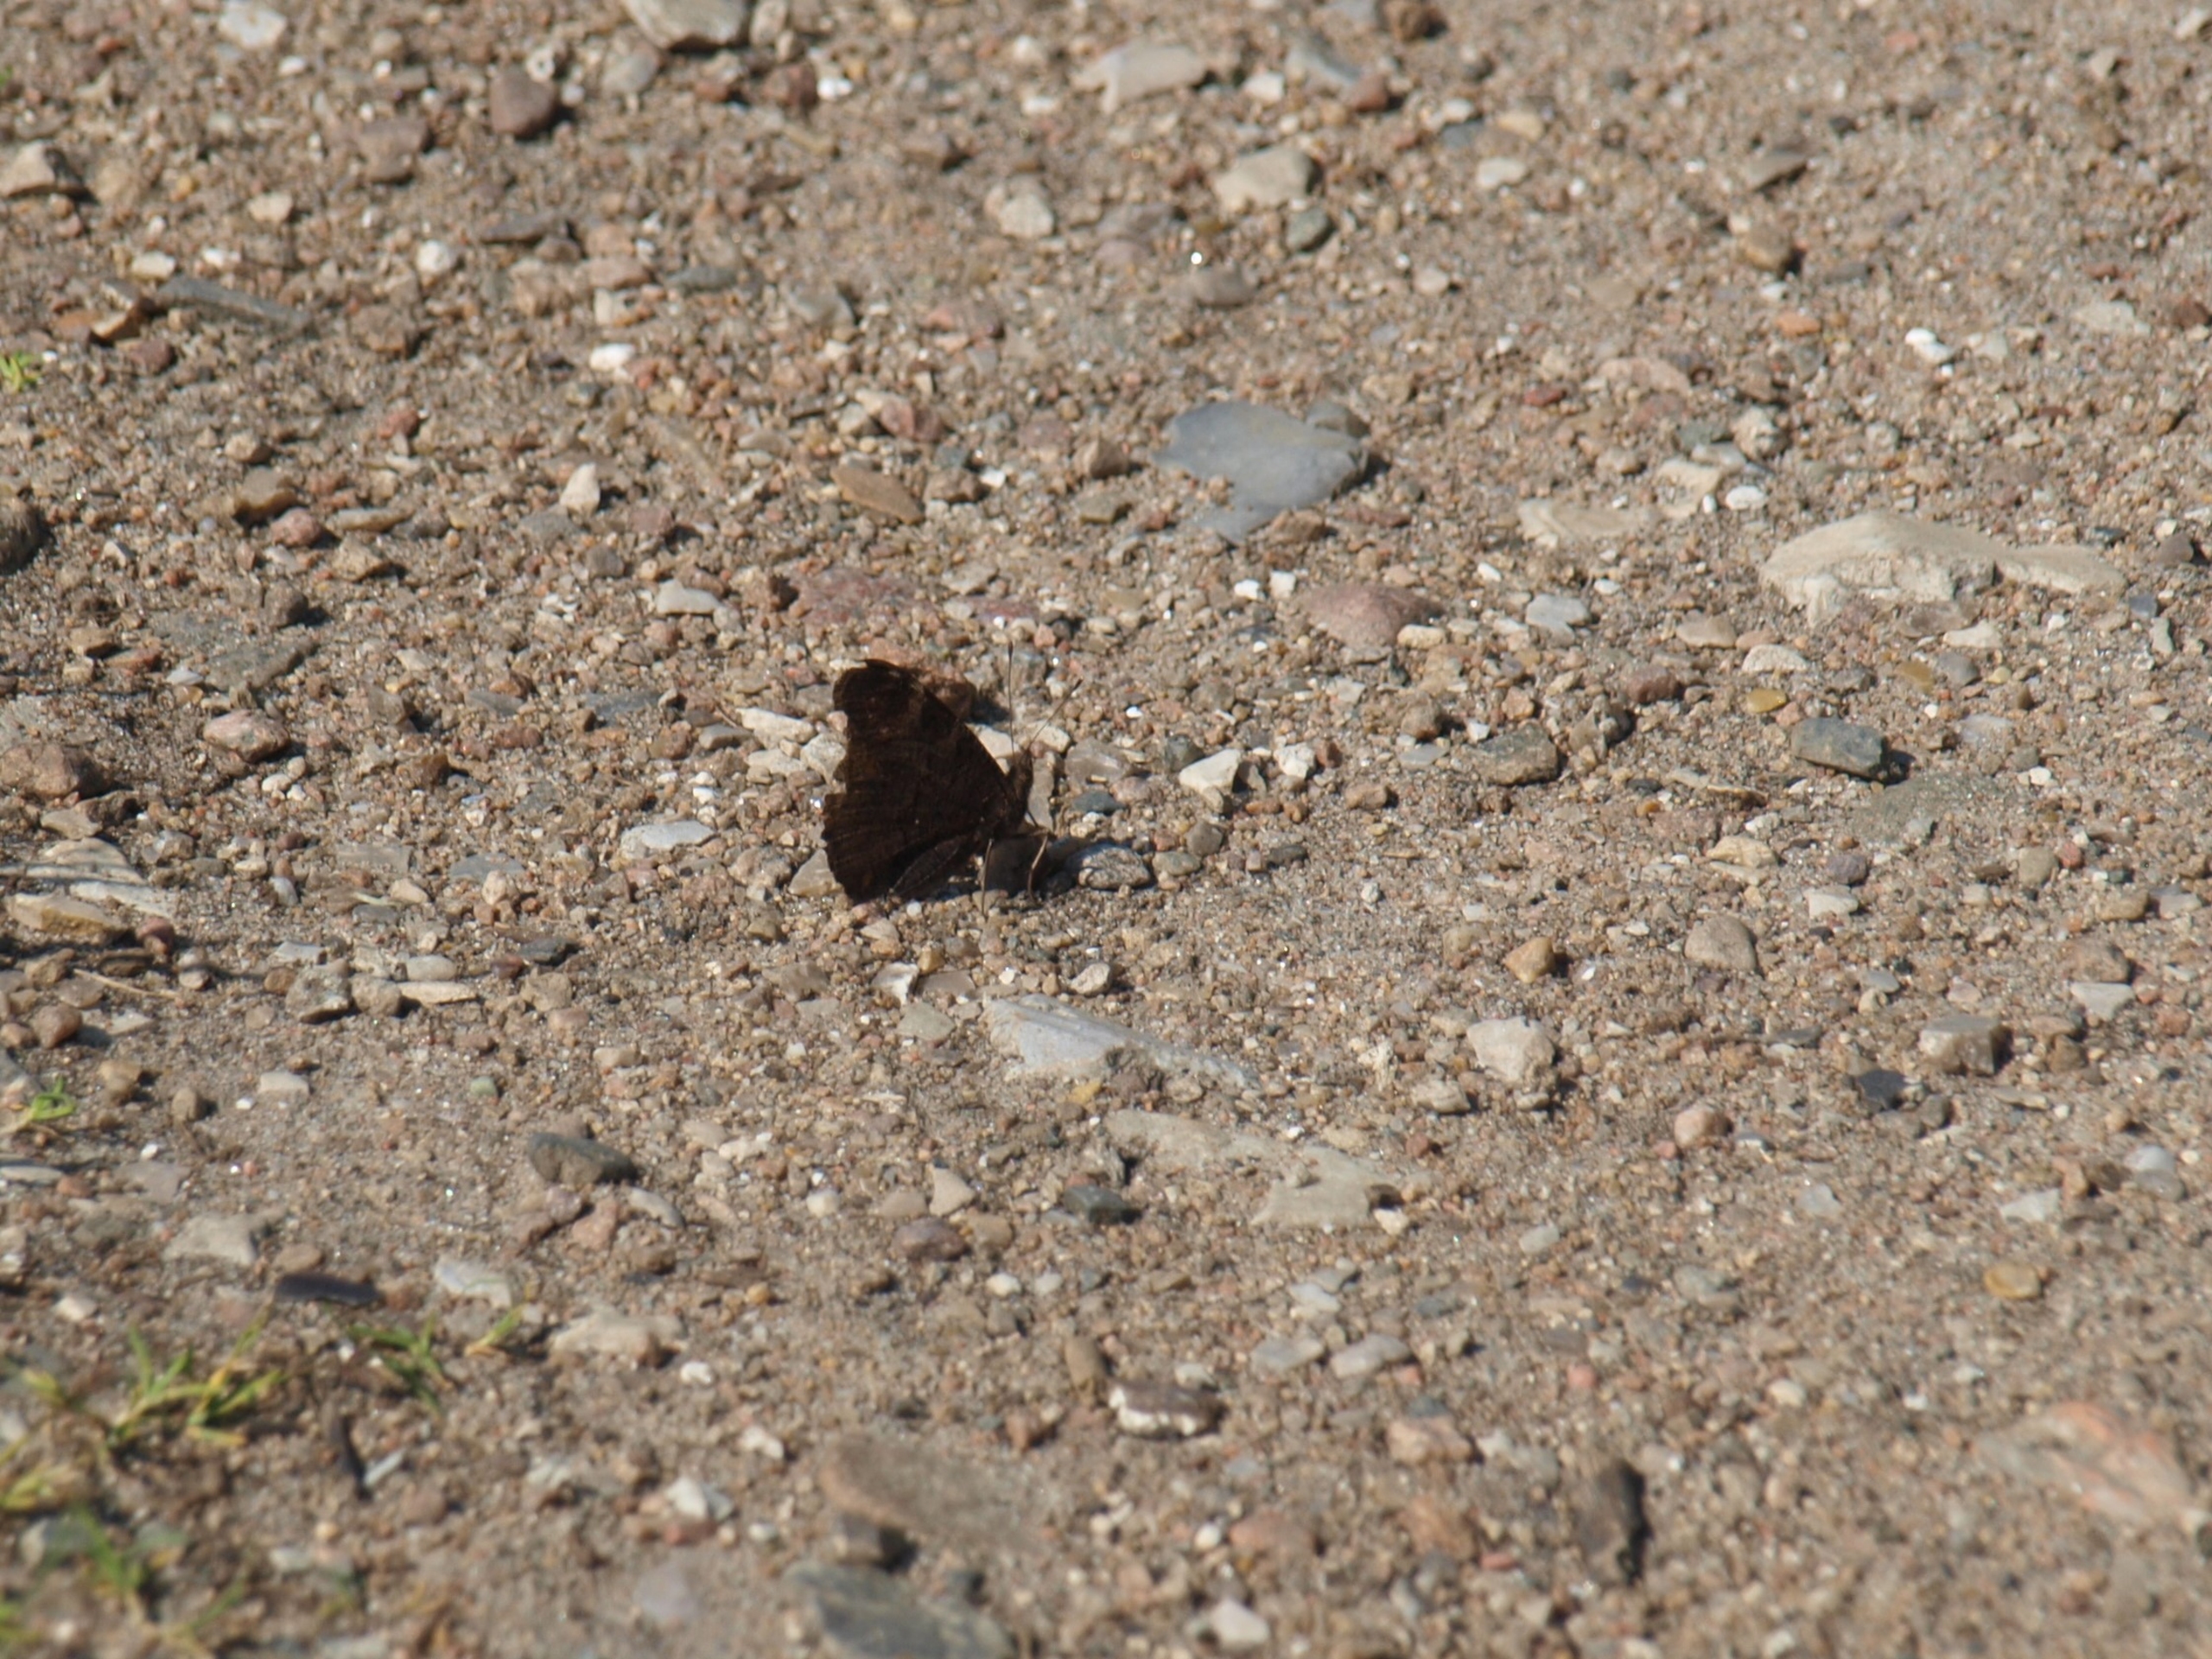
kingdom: Animalia
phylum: Arthropoda
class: Insecta
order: Lepidoptera
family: Nymphalidae
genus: Aglais
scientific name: Aglais io
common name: Dagpåfugleøje
